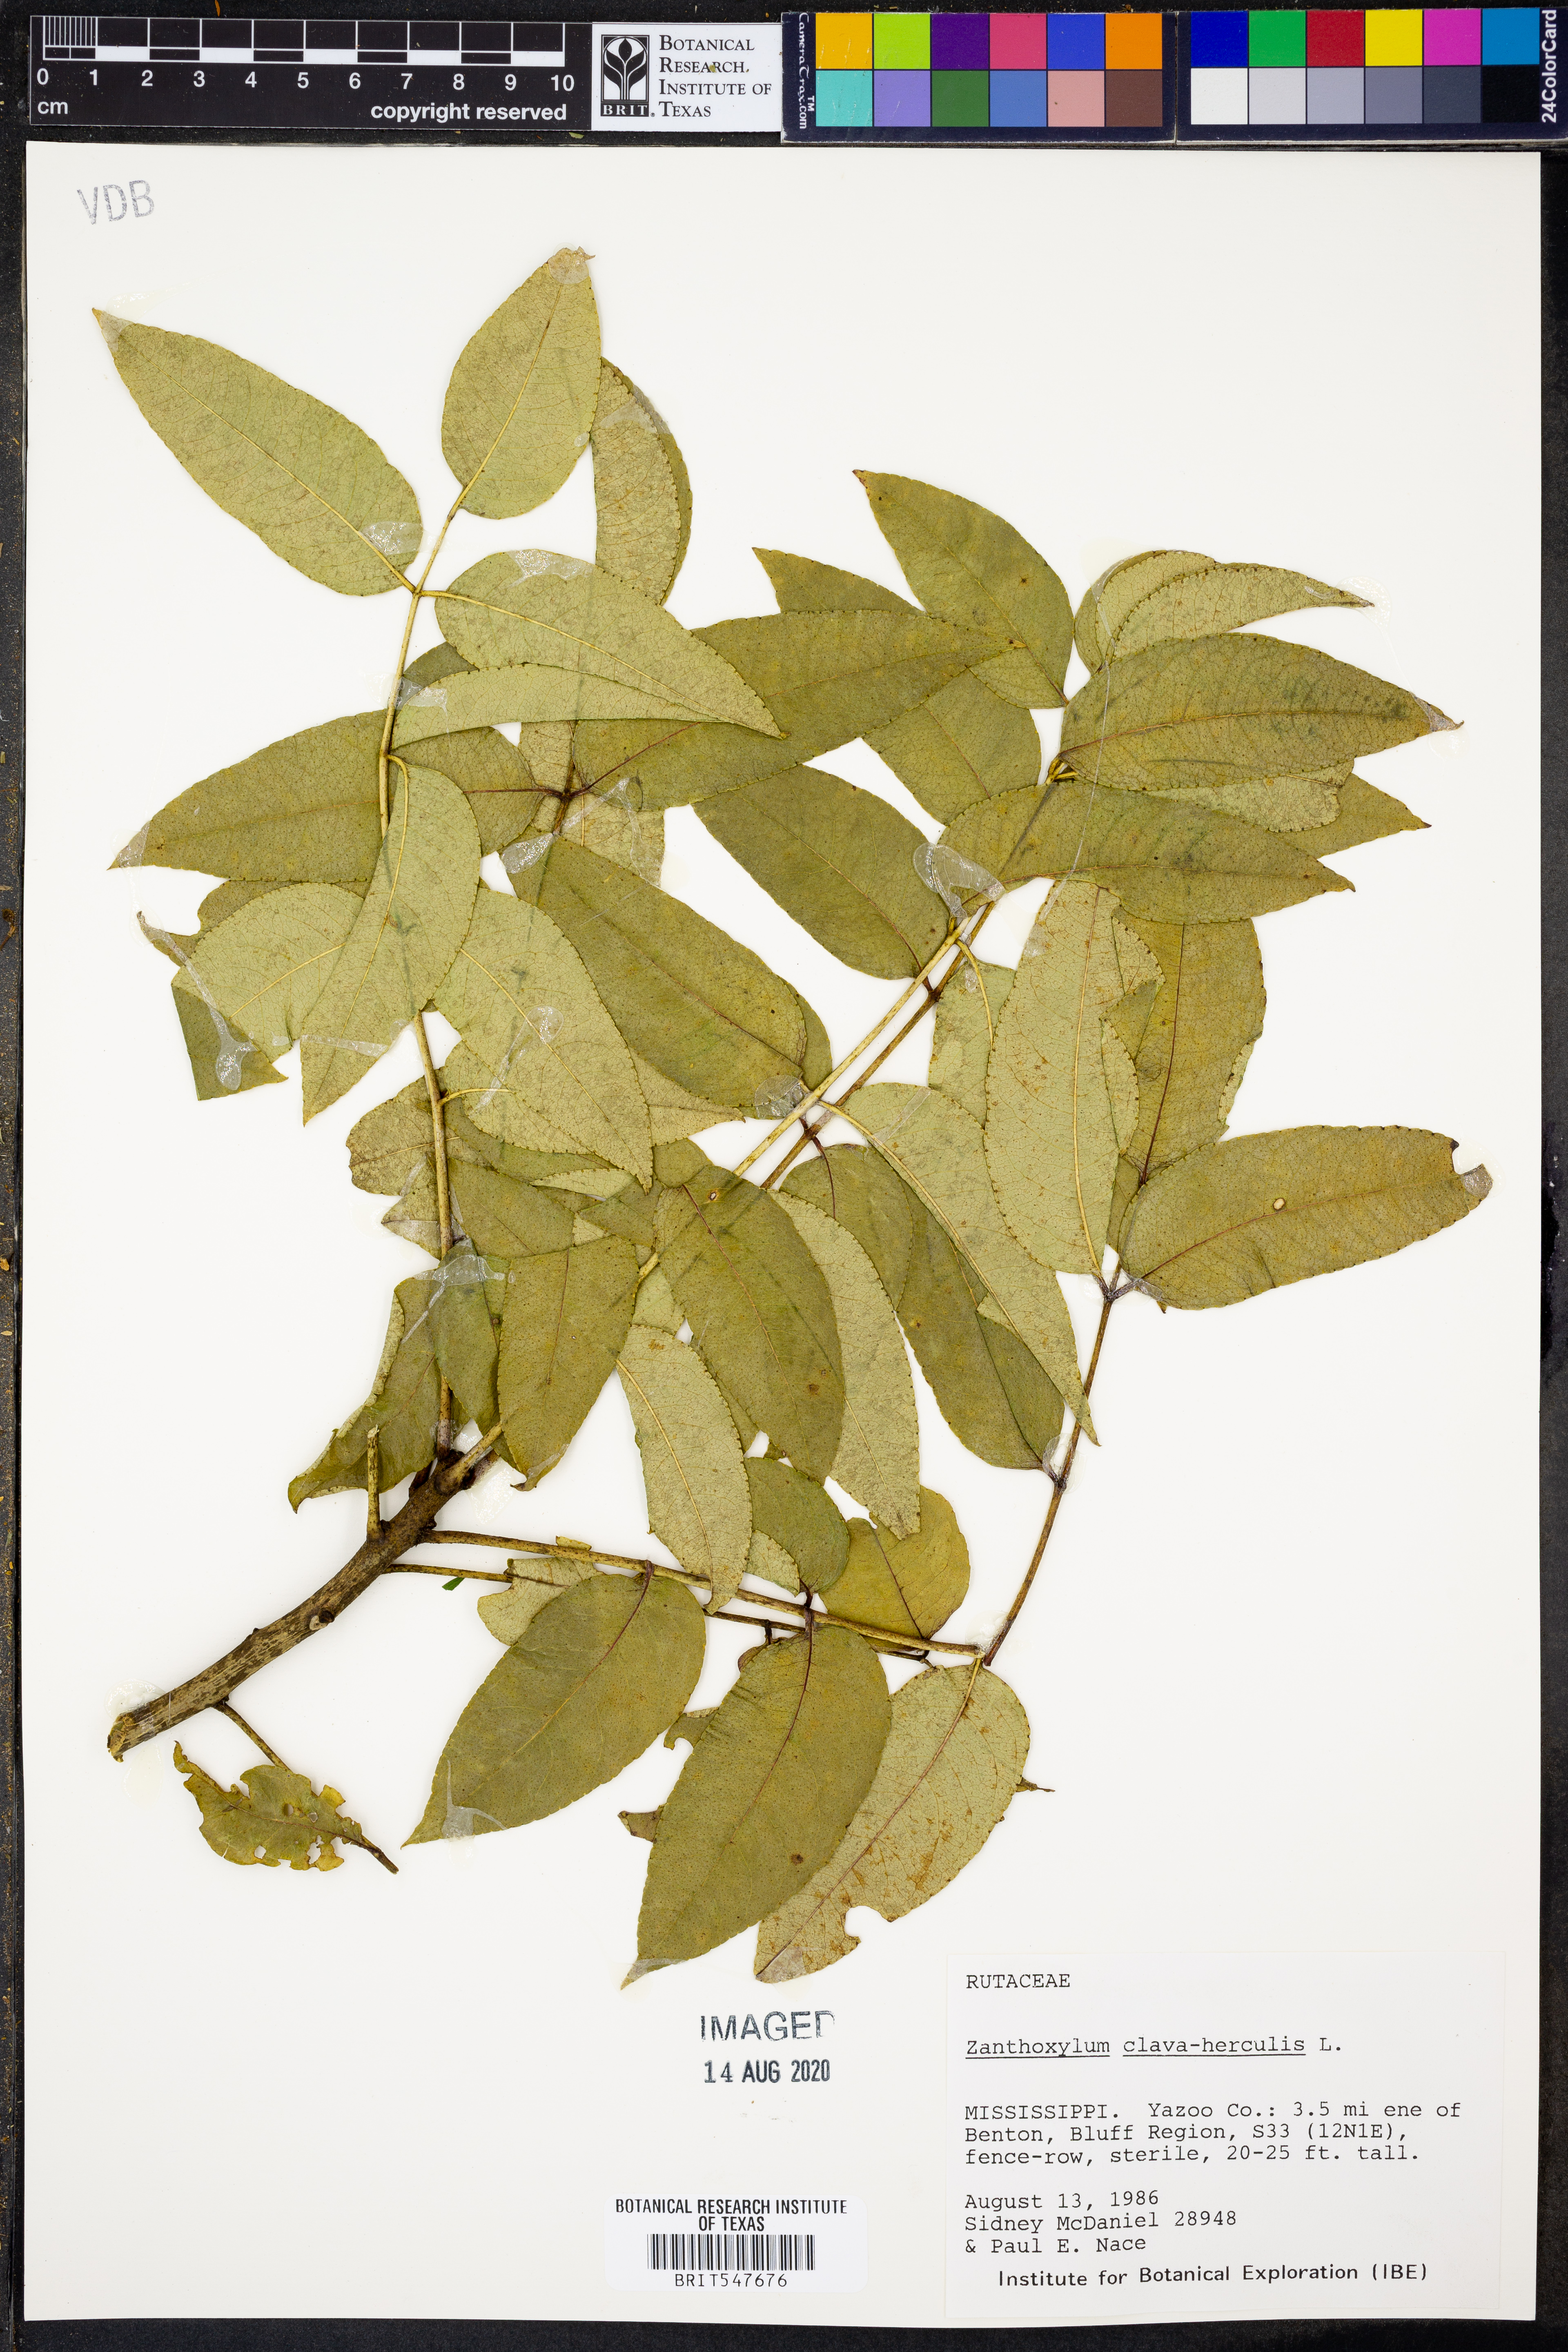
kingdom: Plantae
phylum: Tracheophyta
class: Magnoliopsida
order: Sapindales
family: Rutaceae
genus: Zanthoxylum
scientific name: Zanthoxylum avicennae
